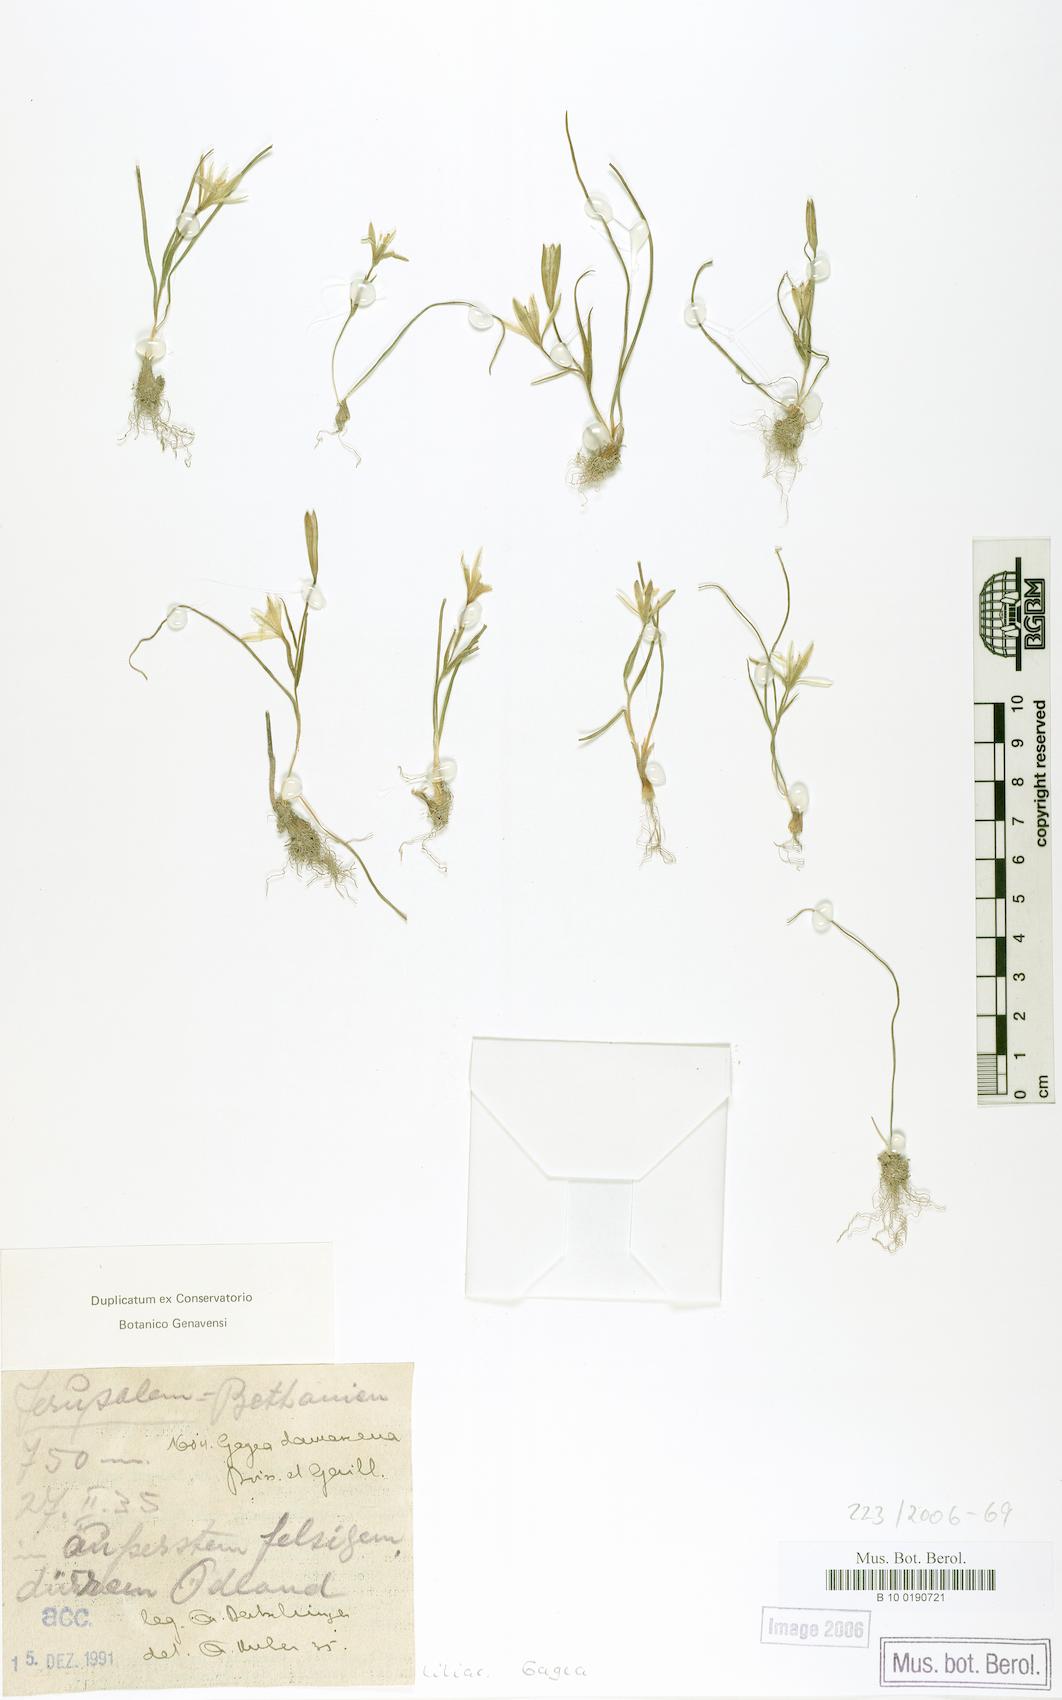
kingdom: Plantae
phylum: Tracheophyta
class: Liliopsida
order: Liliales
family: Liliaceae
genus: Gagea
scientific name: Gagea chlorantha
